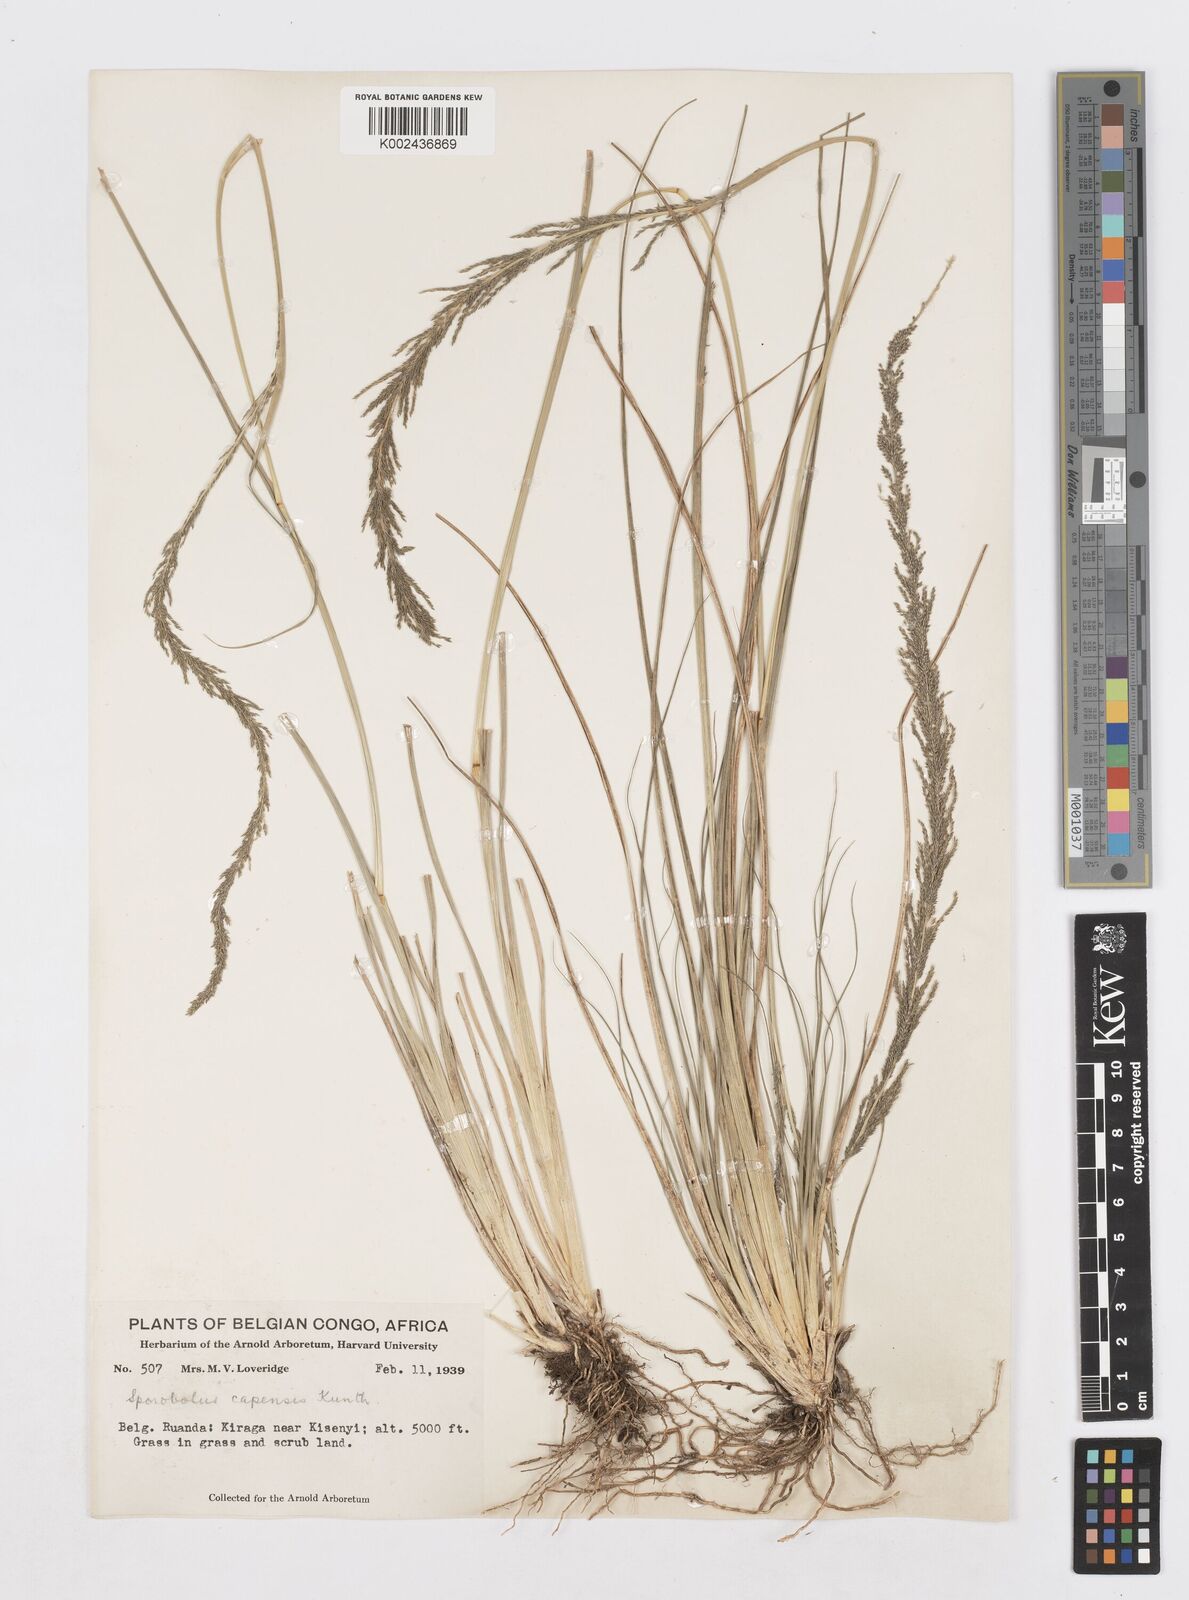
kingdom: Plantae
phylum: Tracheophyta
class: Liliopsida
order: Poales
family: Poaceae
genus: Sporobolus
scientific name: Sporobolus africanus
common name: African dropseed
